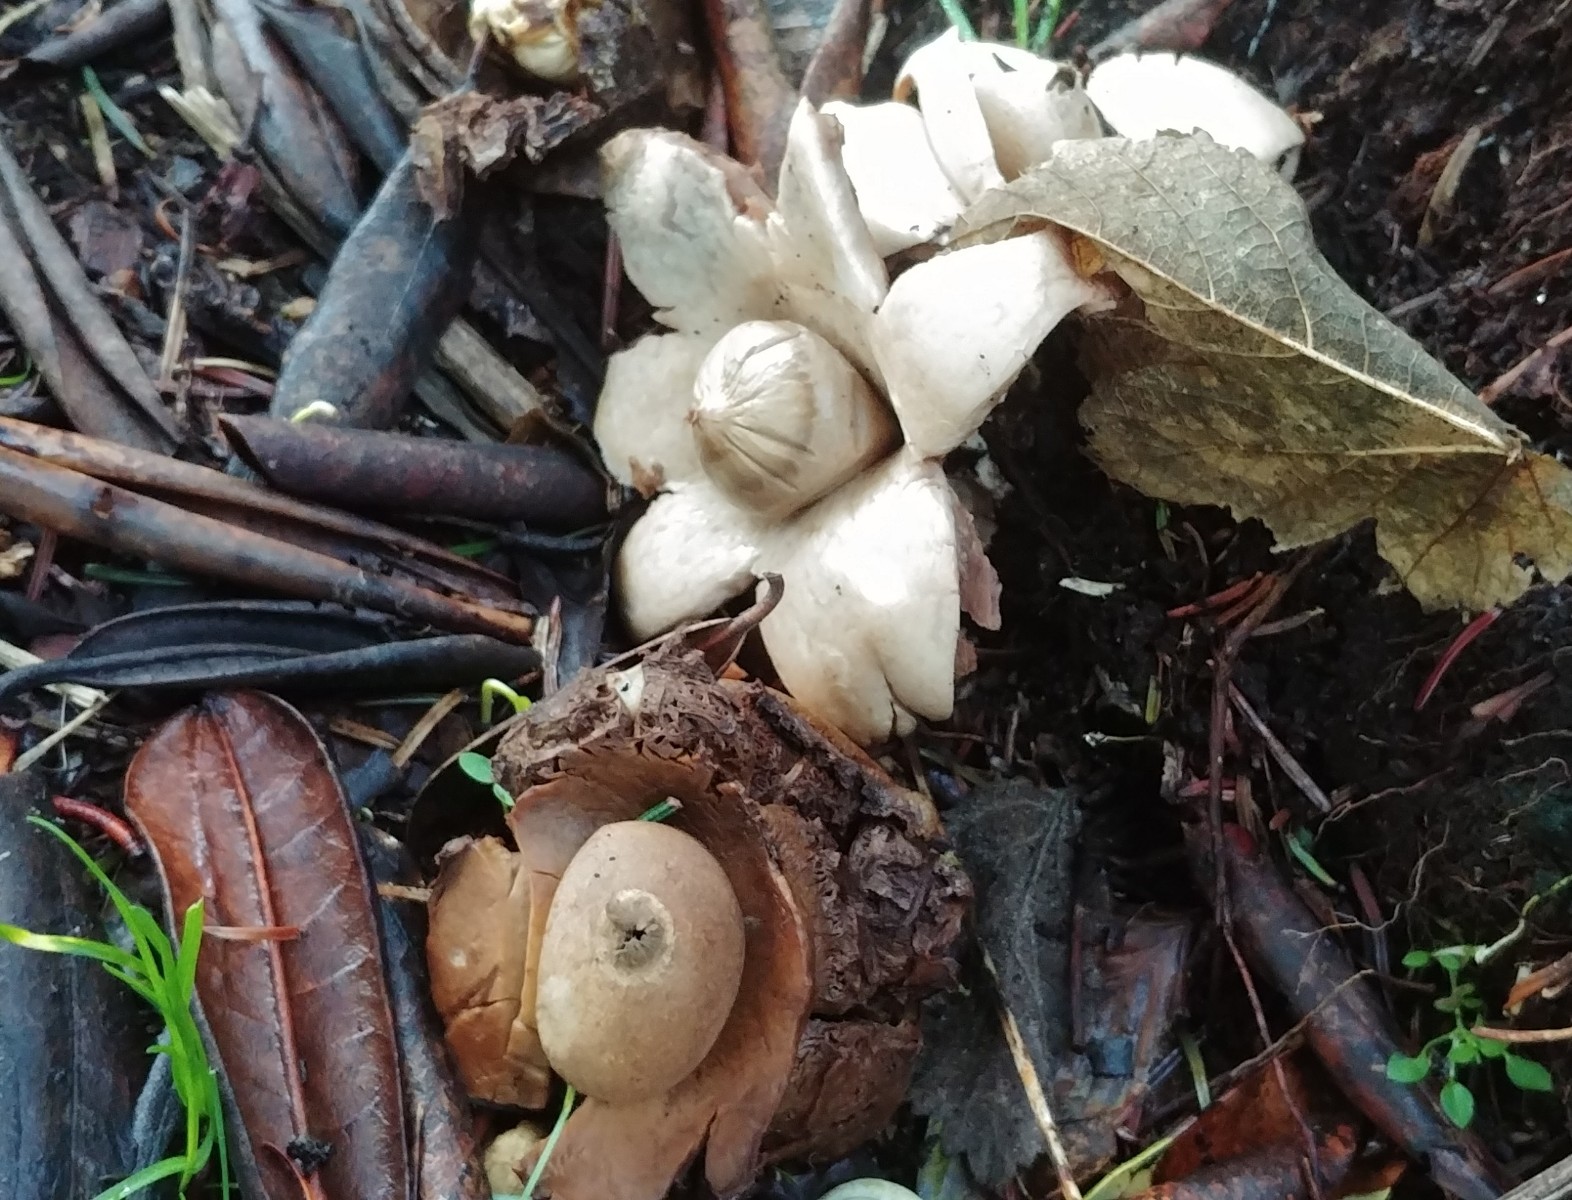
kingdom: Fungi
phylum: Basidiomycota
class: Agaricomycetes
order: Geastrales
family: Geastraceae
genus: Geastrum
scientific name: Geastrum michelianum
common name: kødet stjernebold
